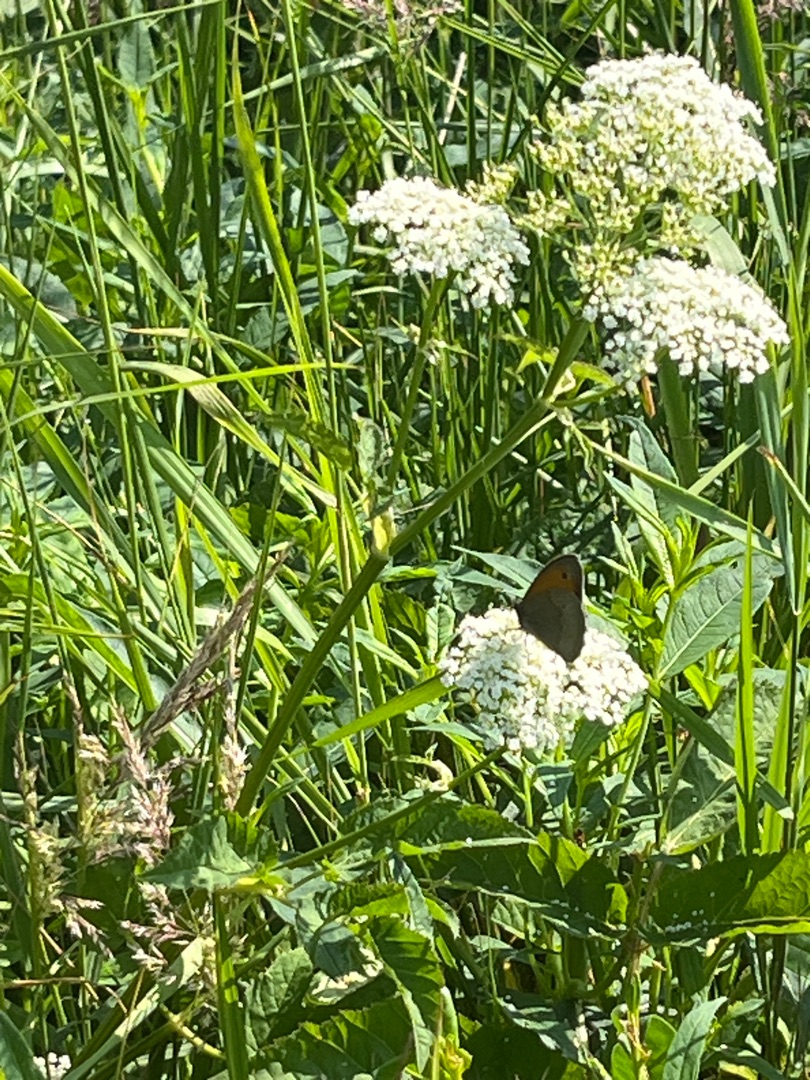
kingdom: Animalia
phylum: Arthropoda
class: Insecta
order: Lepidoptera
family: Nymphalidae
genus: Maniola
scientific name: Maniola jurtina
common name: Græsrandøje
